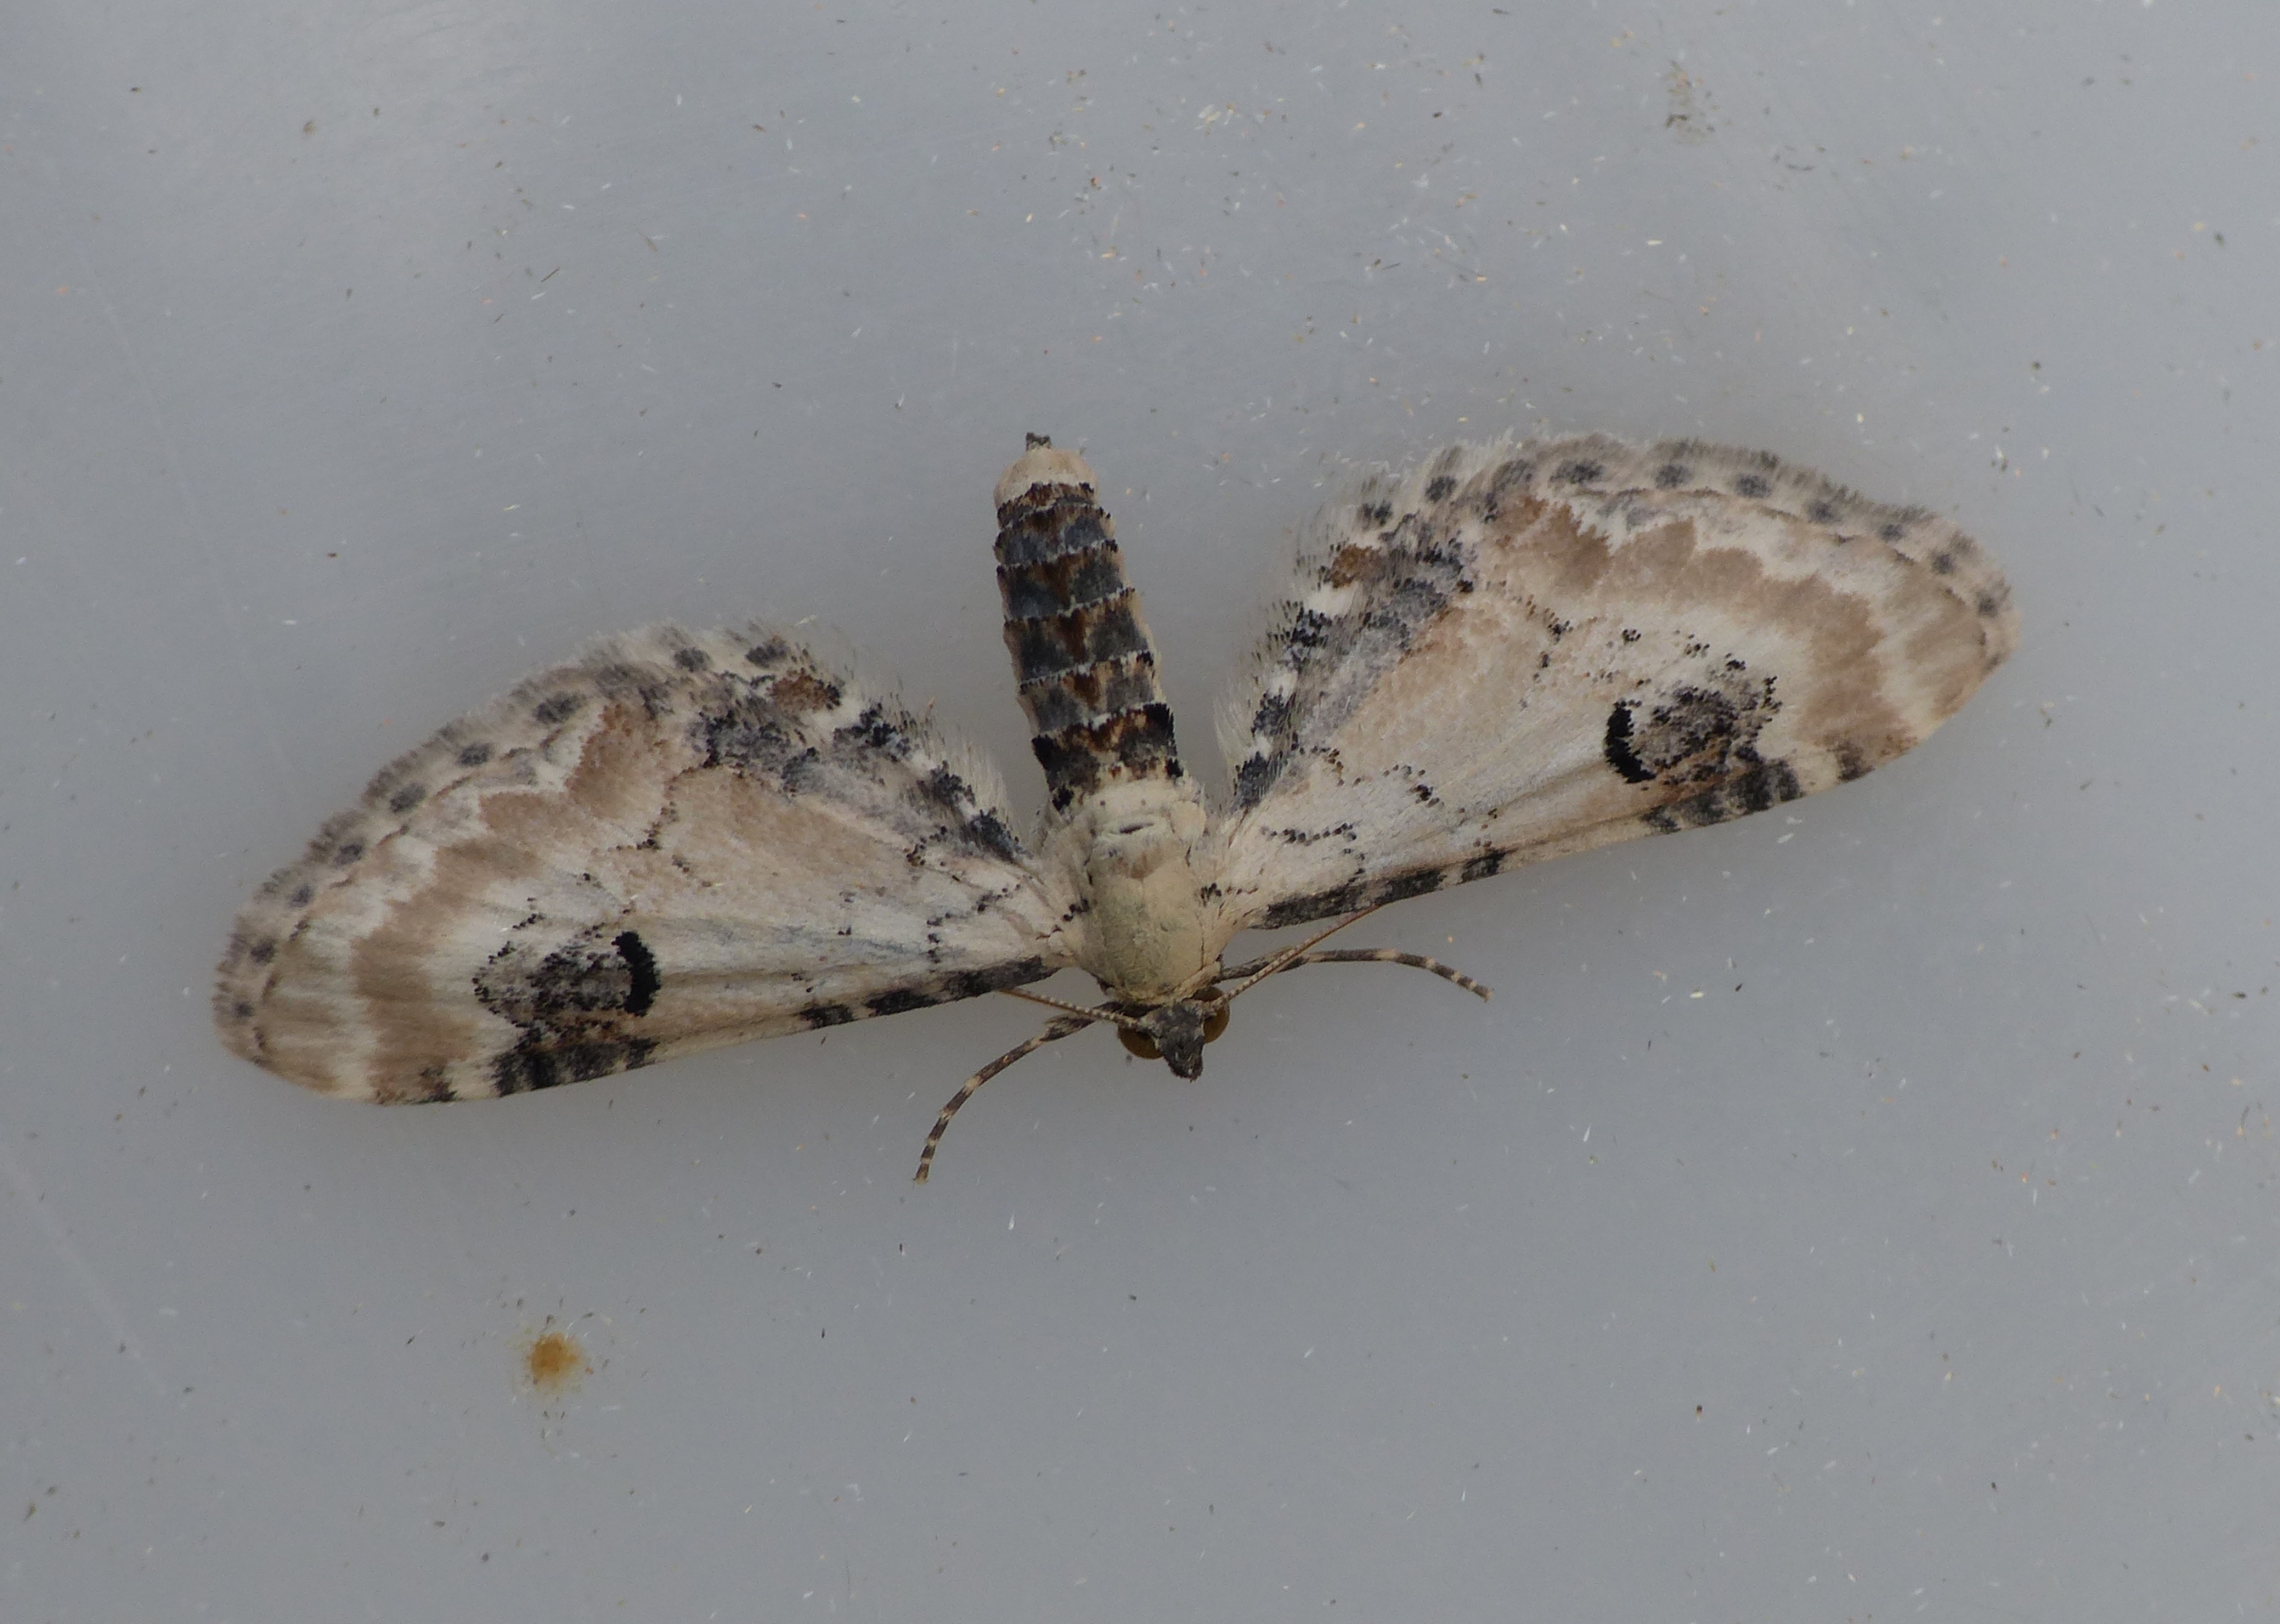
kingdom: Animalia
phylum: Arthropoda
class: Insecta
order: Lepidoptera
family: Geometridae
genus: Eupithecia
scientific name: Eupithecia centaureata
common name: Hvid dværgmåler
